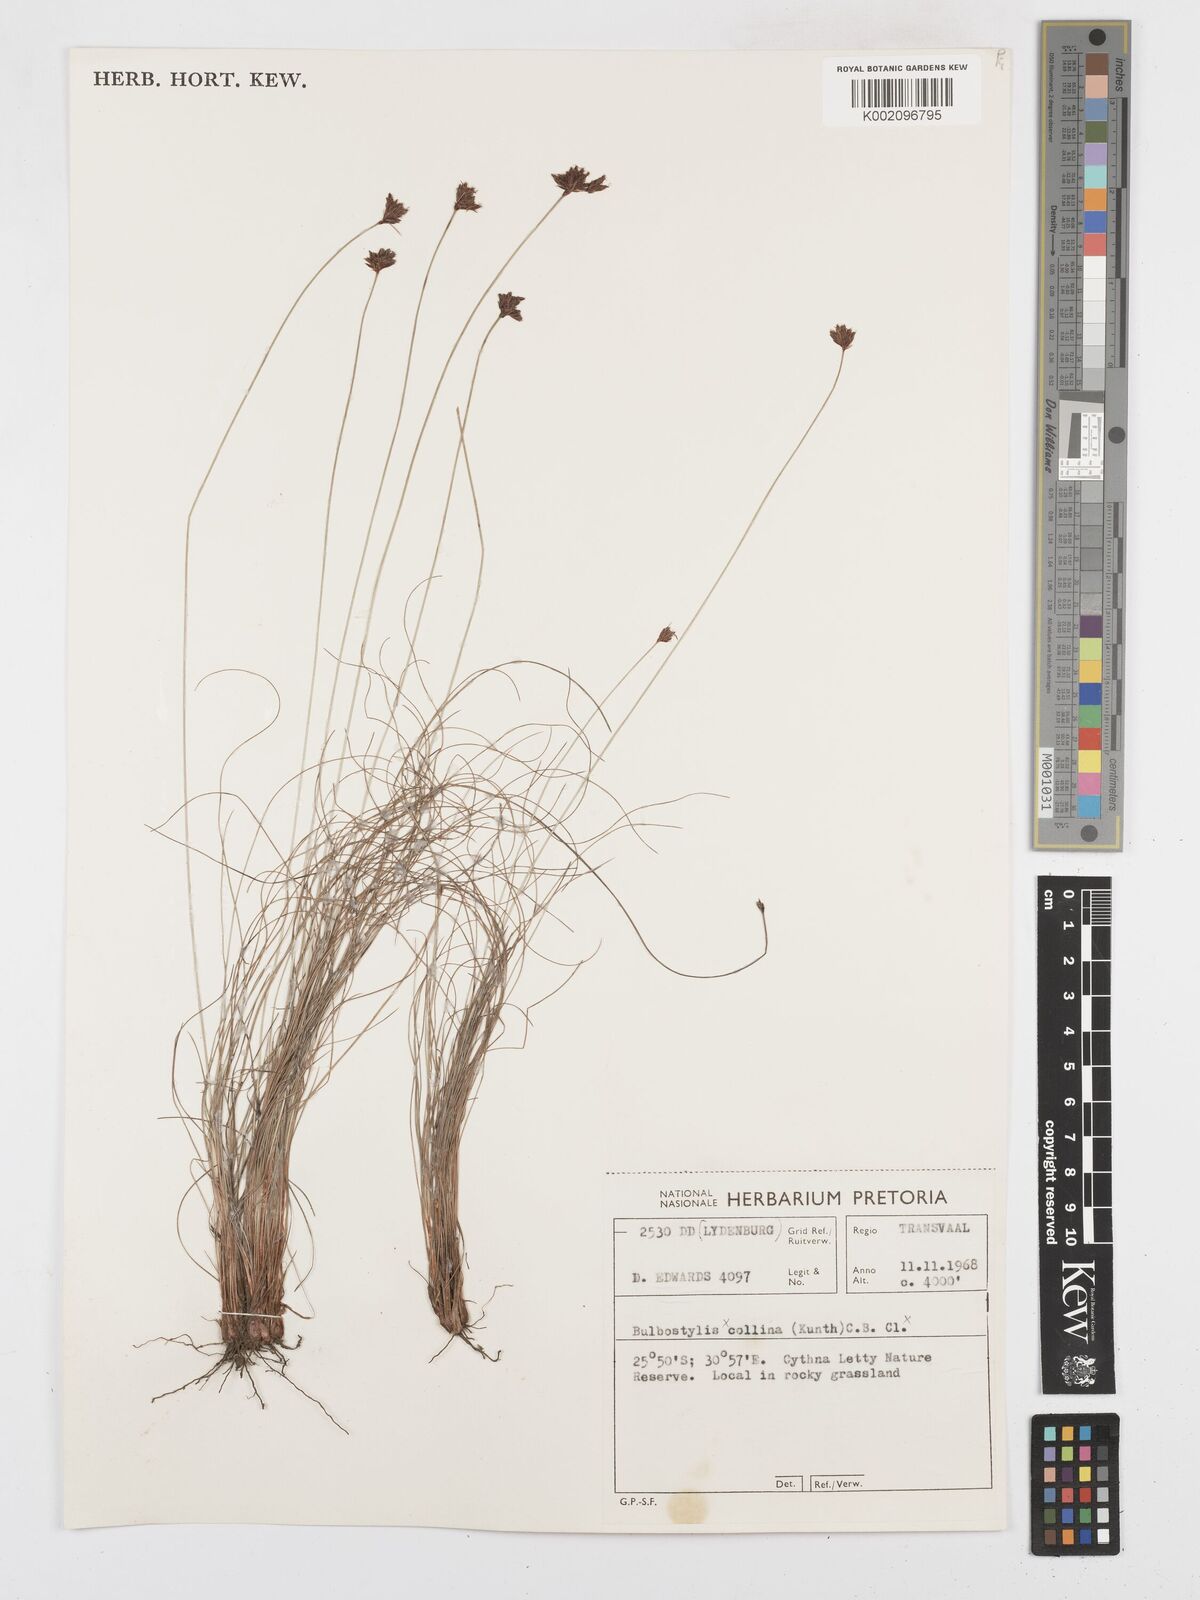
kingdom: Plantae
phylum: Tracheophyta
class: Liliopsida
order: Poales
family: Cyperaceae
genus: Bulbostylis
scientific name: Bulbostylis
